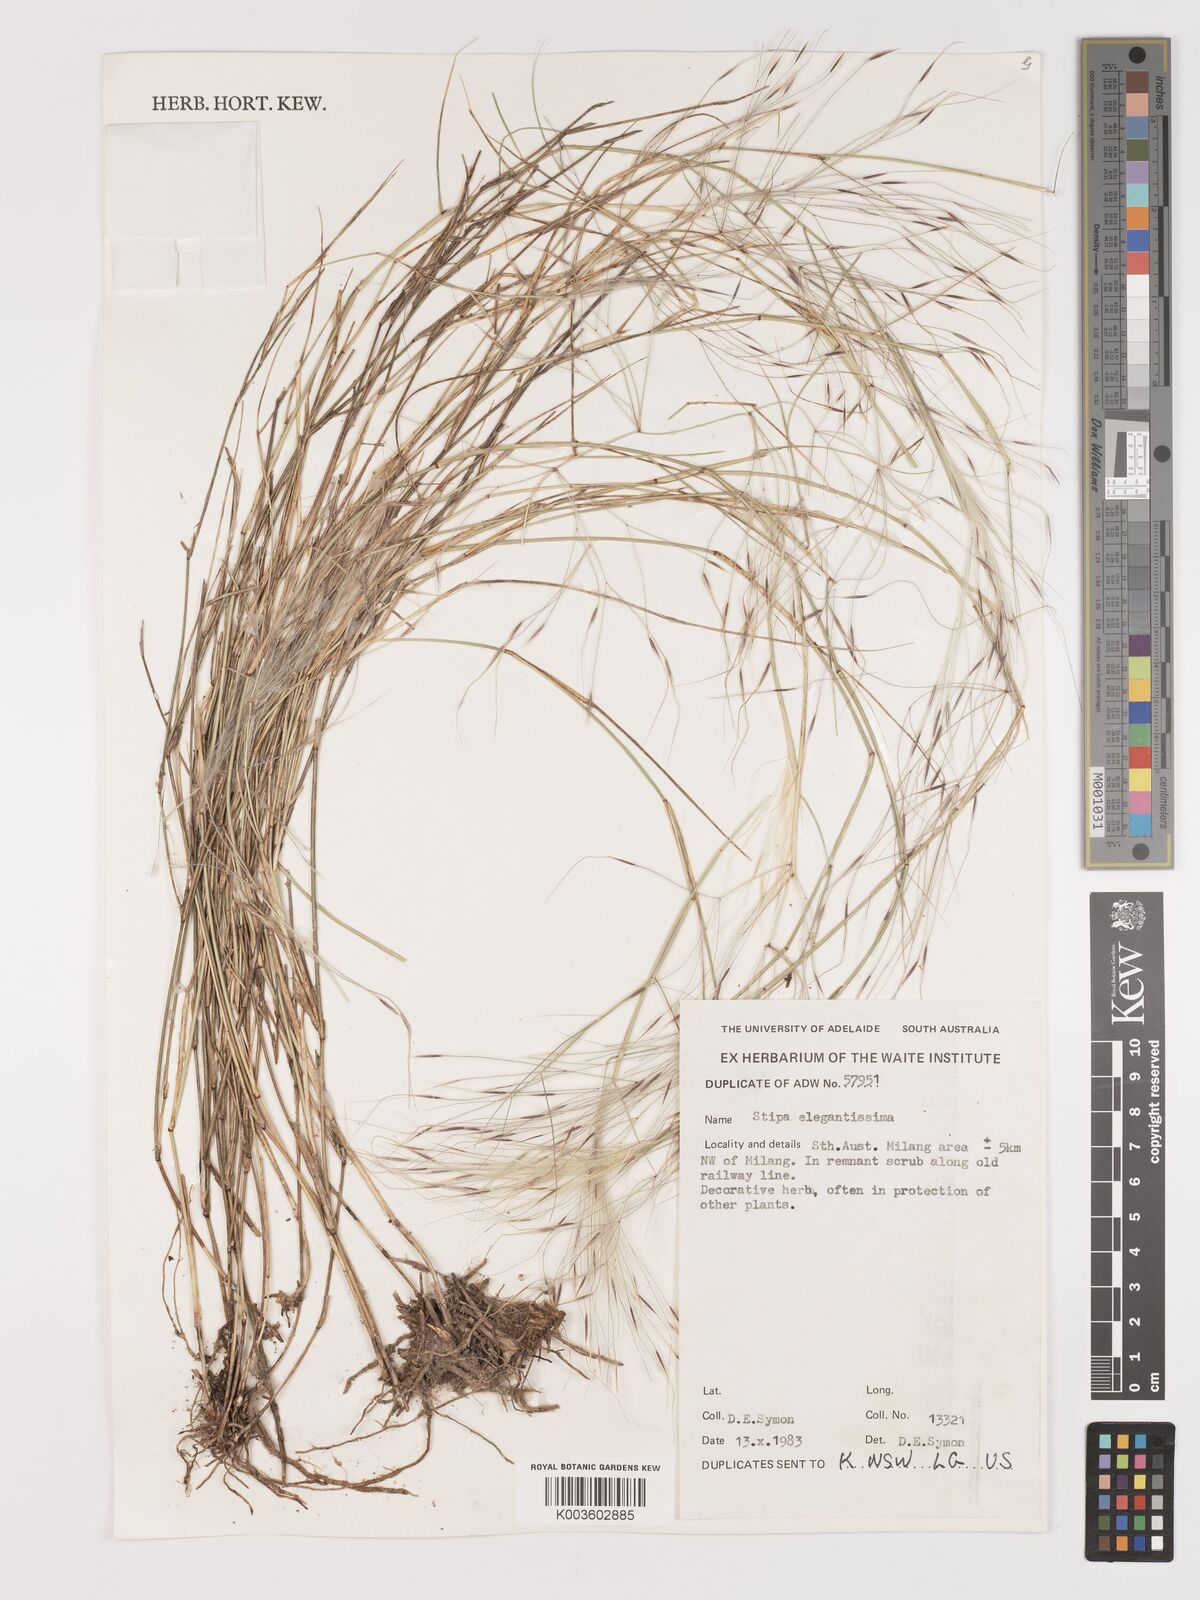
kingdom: Plantae
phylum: Tracheophyta
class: Liliopsida
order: Poales
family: Poaceae
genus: Austrostipa
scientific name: Austrostipa elegantissima
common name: Feather spear grass
